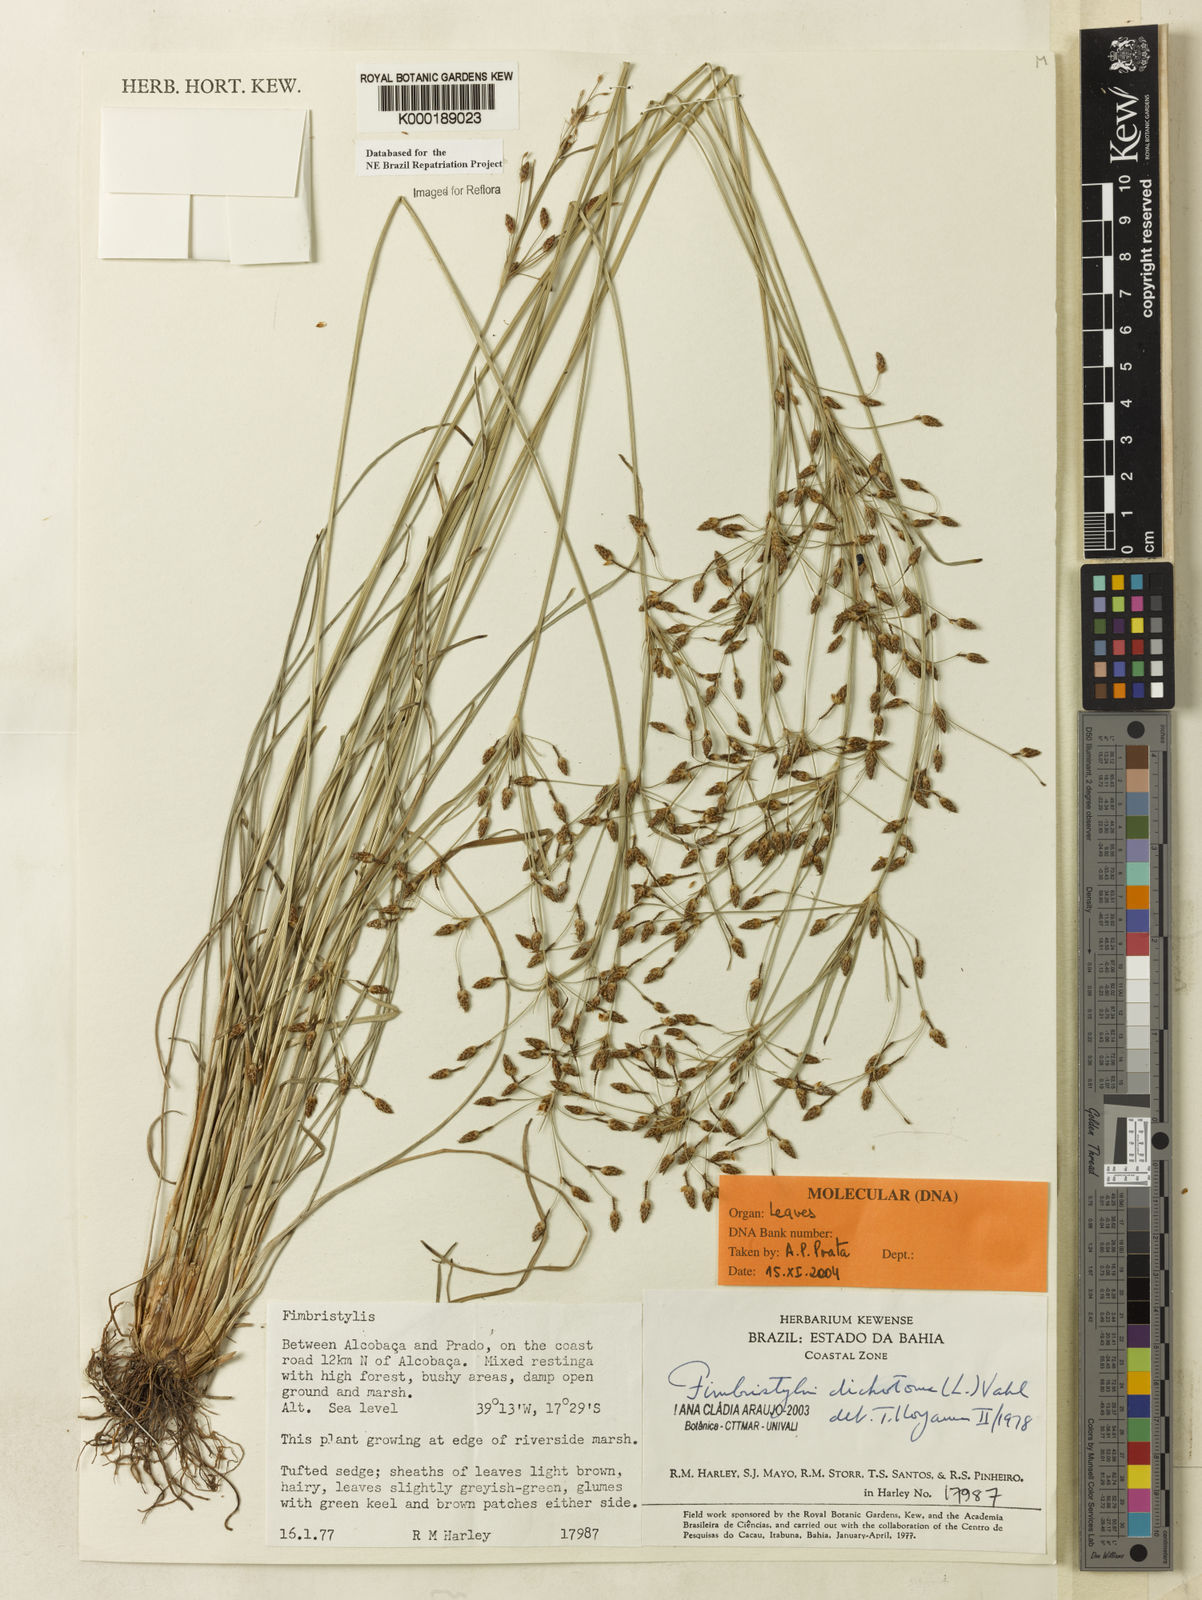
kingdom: Plantae
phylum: Tracheophyta
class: Liliopsida
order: Poales
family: Cyperaceae
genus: Fimbristylis
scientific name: Fimbristylis dichotoma
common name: Forked fimbry
